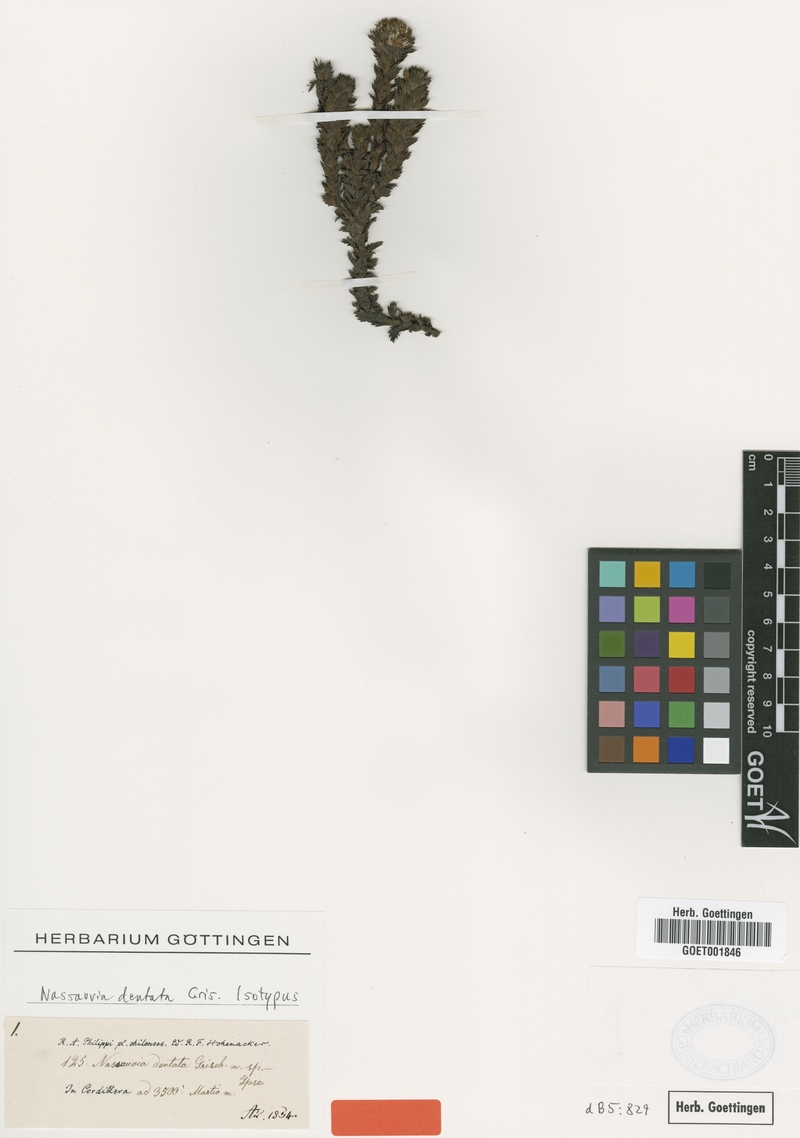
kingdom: Plantae
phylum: Tracheophyta
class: Magnoliopsida
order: Asterales
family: Asteraceae
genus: Nassauvia
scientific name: Nassauvia dentata
